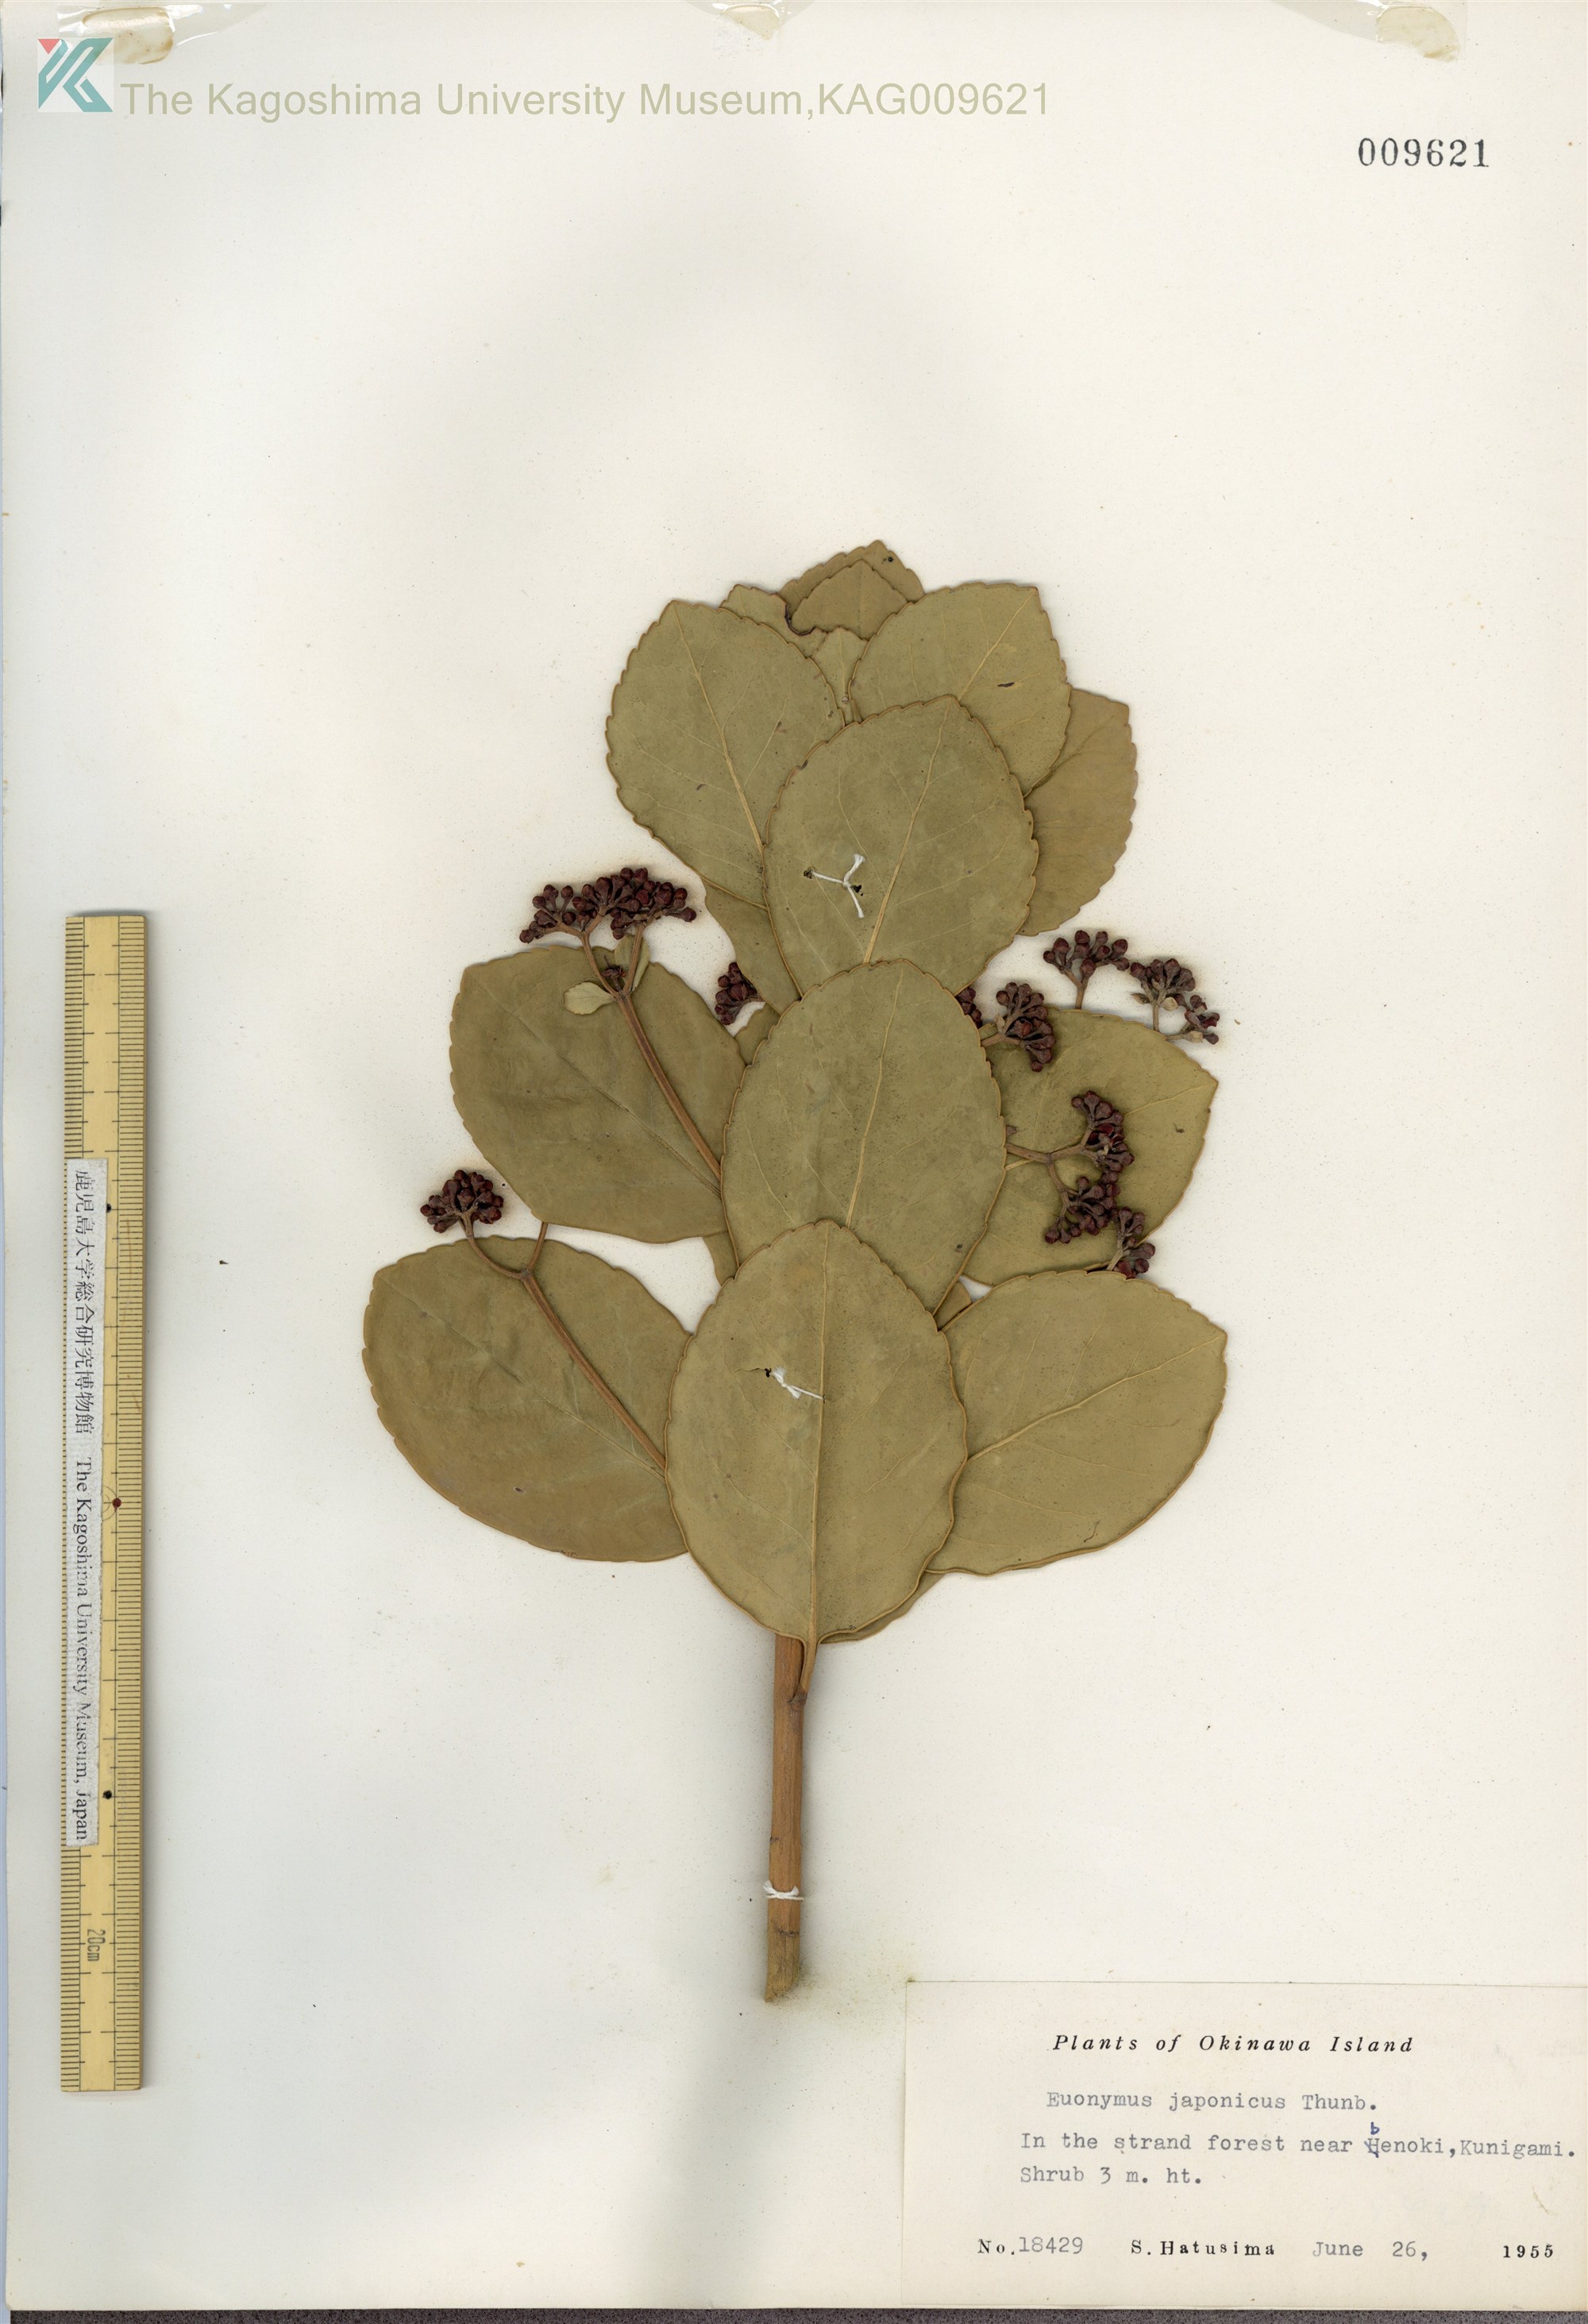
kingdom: Plantae
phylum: Tracheophyta
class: Magnoliopsida
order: Celastrales
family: Celastraceae
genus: Euonymus
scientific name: Euonymus japonicus
